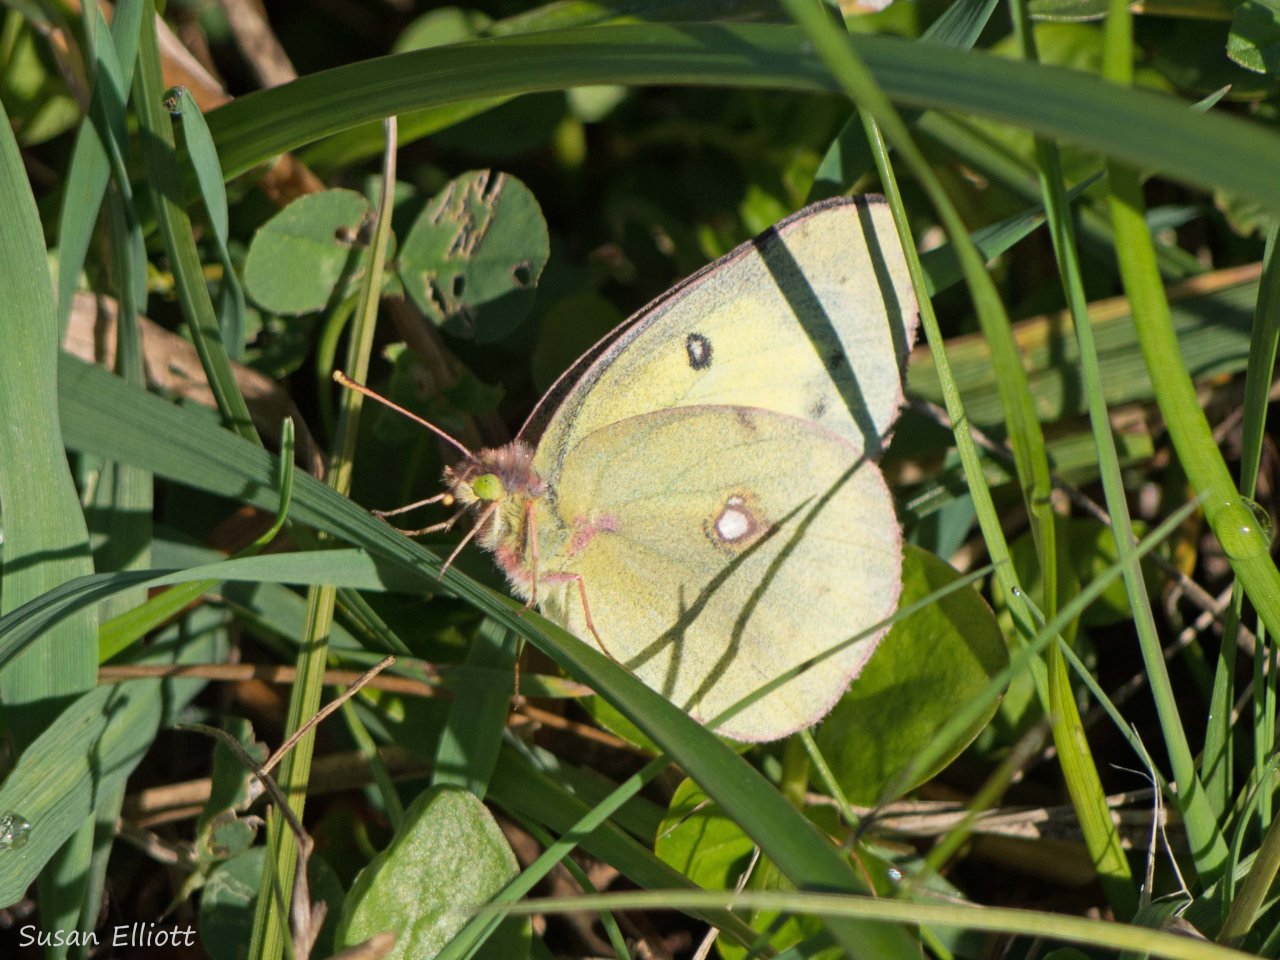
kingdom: Animalia
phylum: Arthropoda
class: Insecta
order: Lepidoptera
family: Pieridae
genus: Colias
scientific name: Colias philodice
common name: Clouded Sulphur
